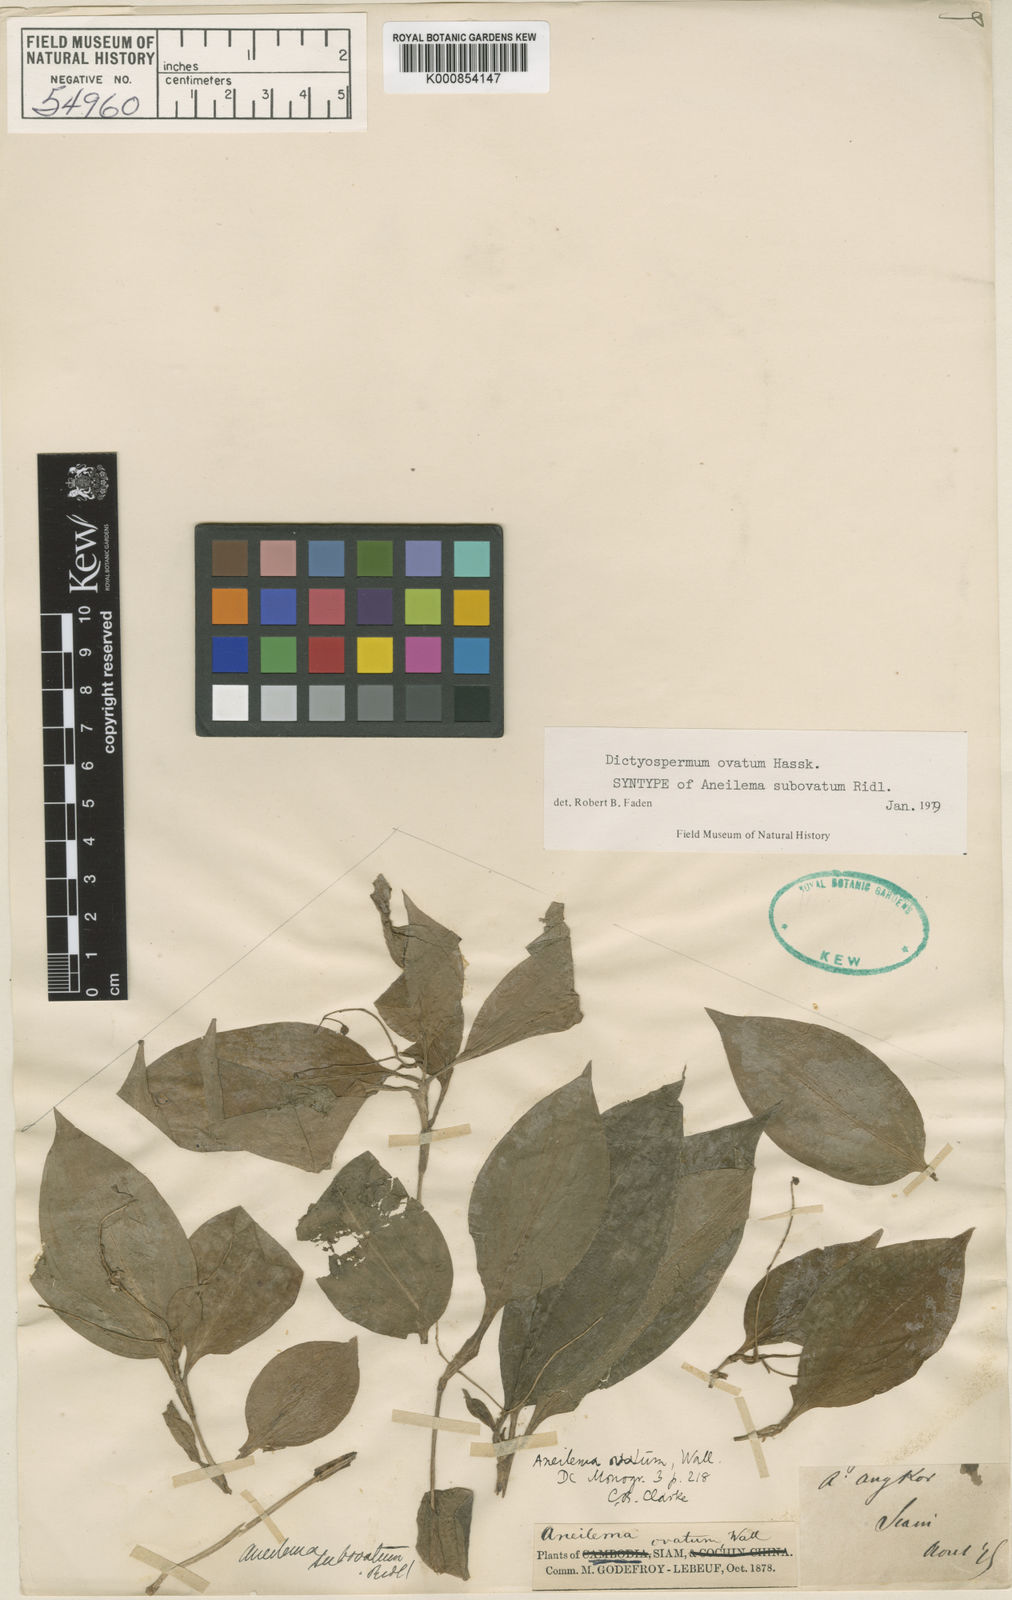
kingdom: Plantae
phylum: Tracheophyta
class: Liliopsida
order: Commelinales
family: Commelinaceae
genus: Dictyospermum
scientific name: Dictyospermum ovatum
